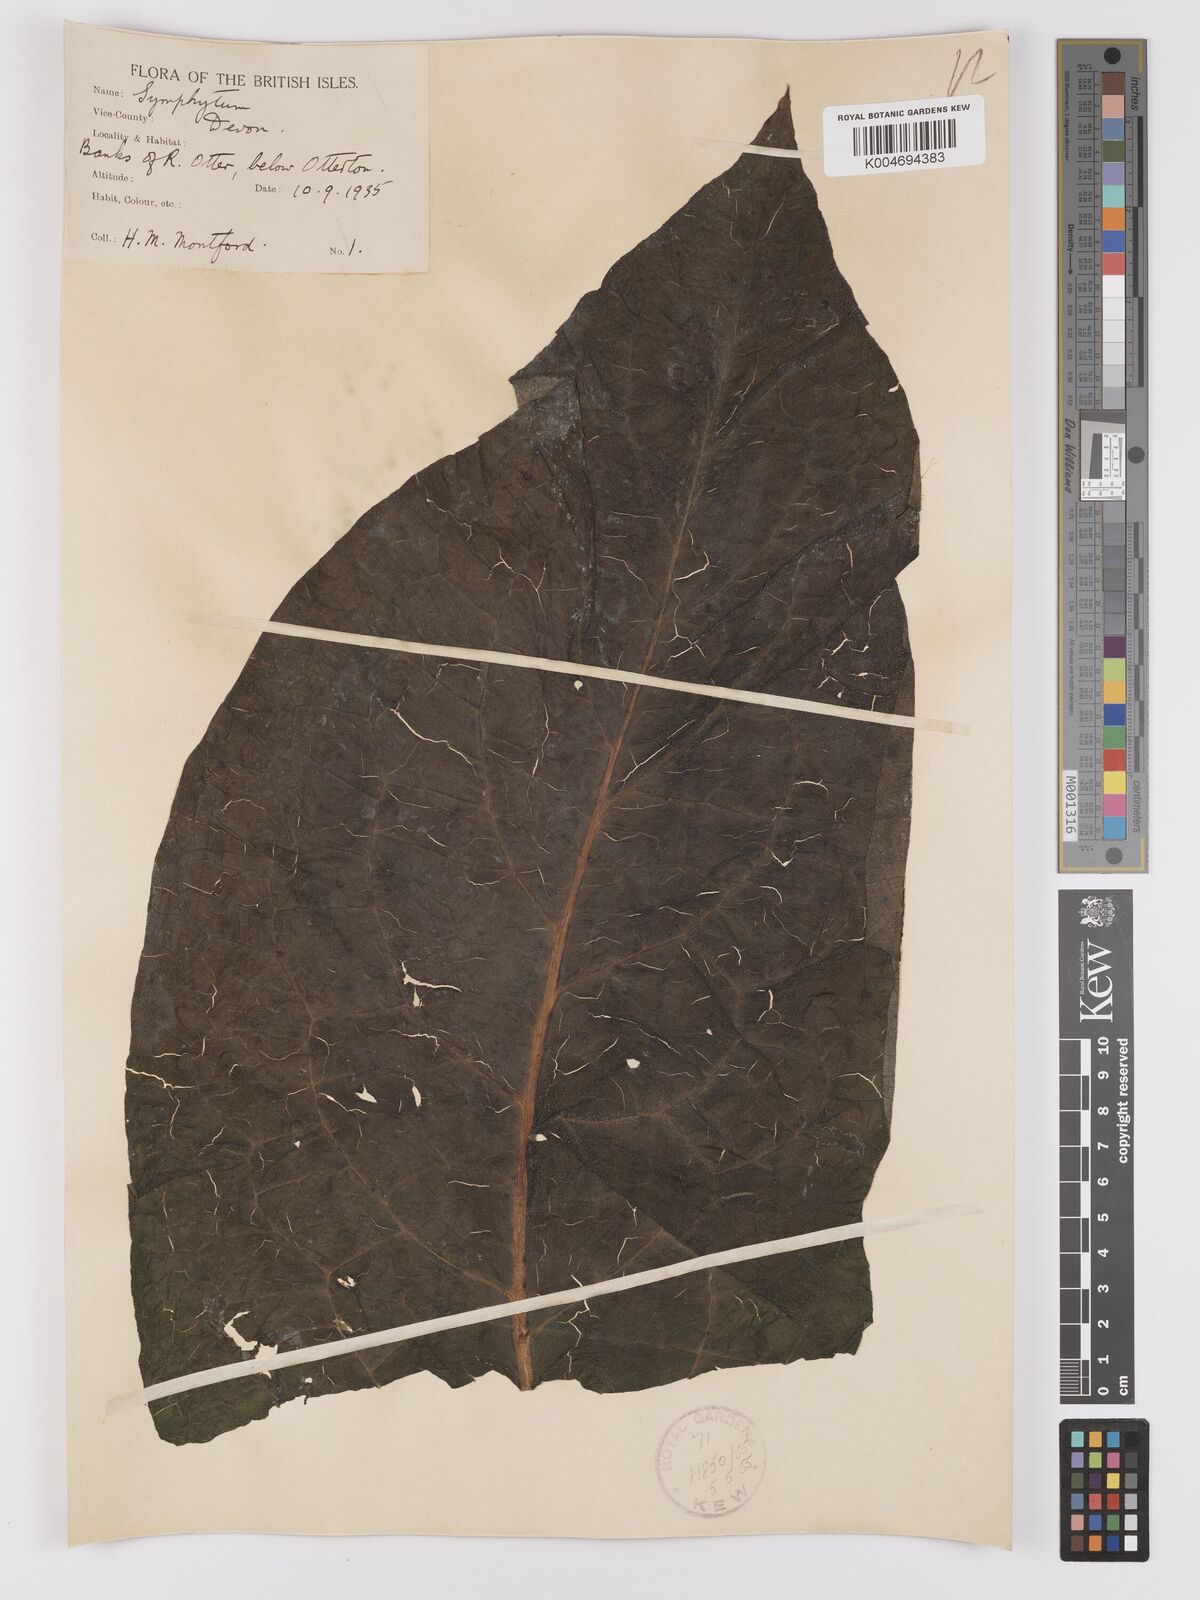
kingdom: Plantae
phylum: Tracheophyta
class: Magnoliopsida
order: Boraginales
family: Boraginaceae
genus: Symphytum
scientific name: Symphytum officinale
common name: Common comfrey
